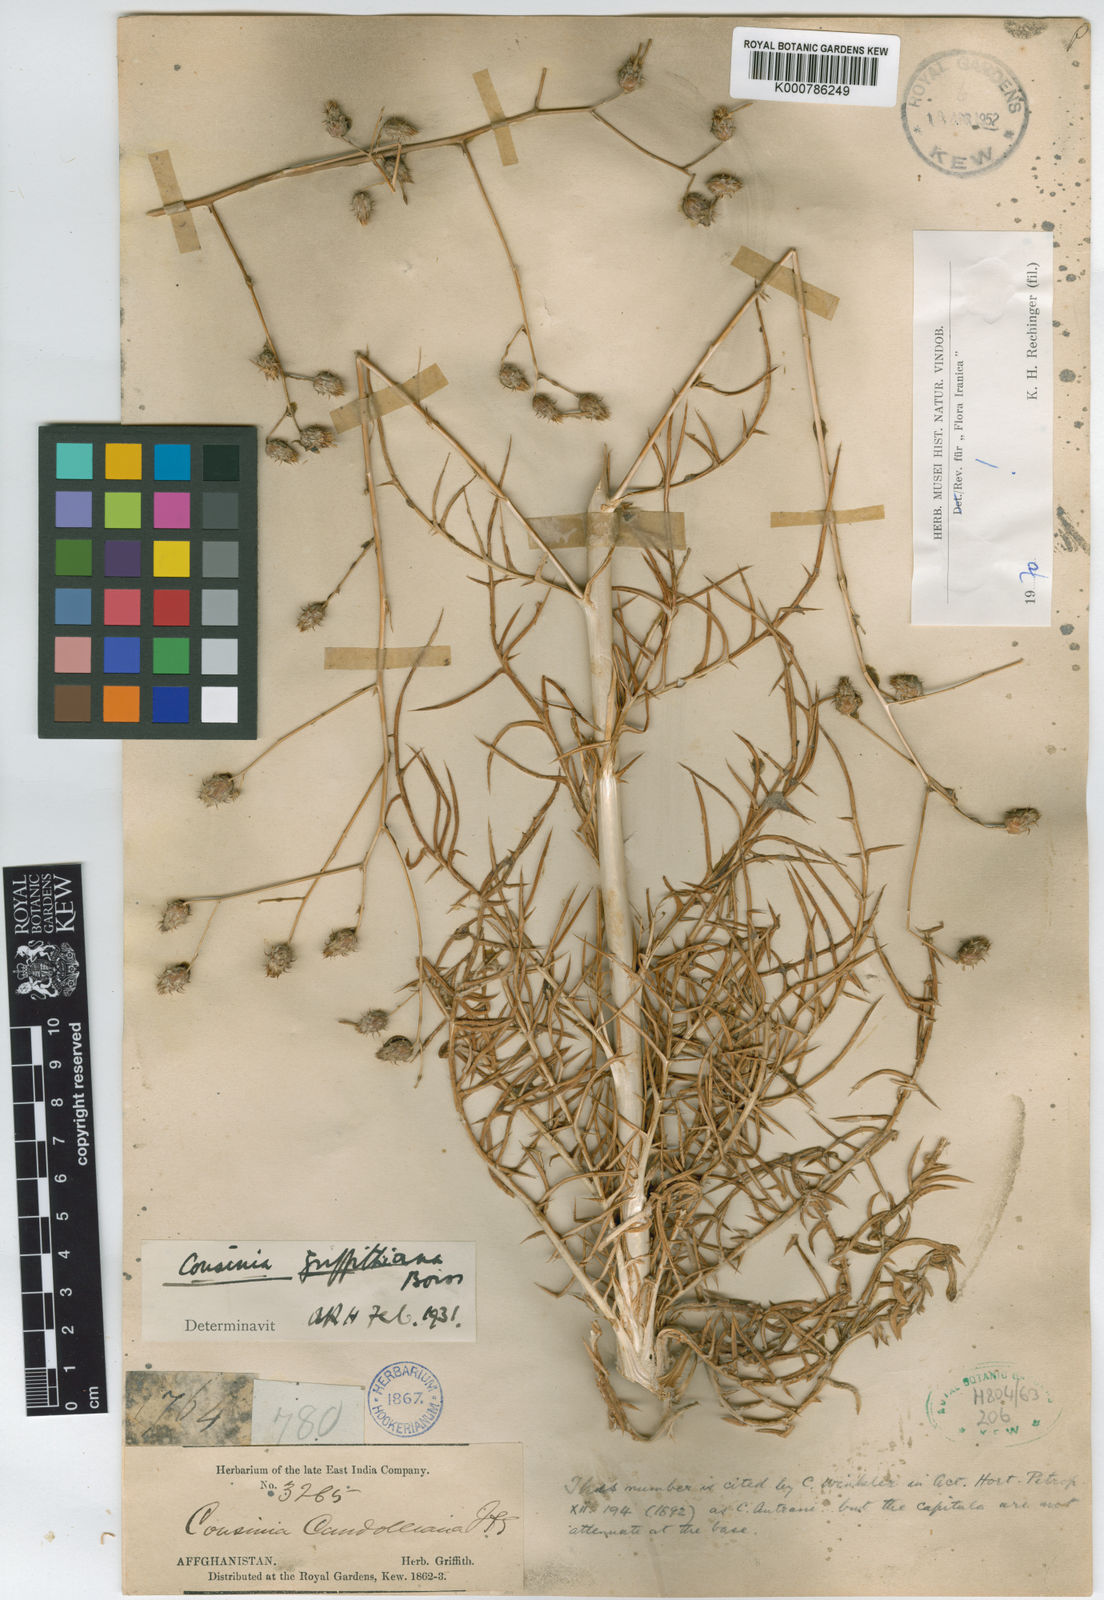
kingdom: Plantae
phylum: Tracheophyta
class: Magnoliopsida
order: Asterales
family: Asteraceae
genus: Cousinia
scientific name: Cousinia griffithiana
